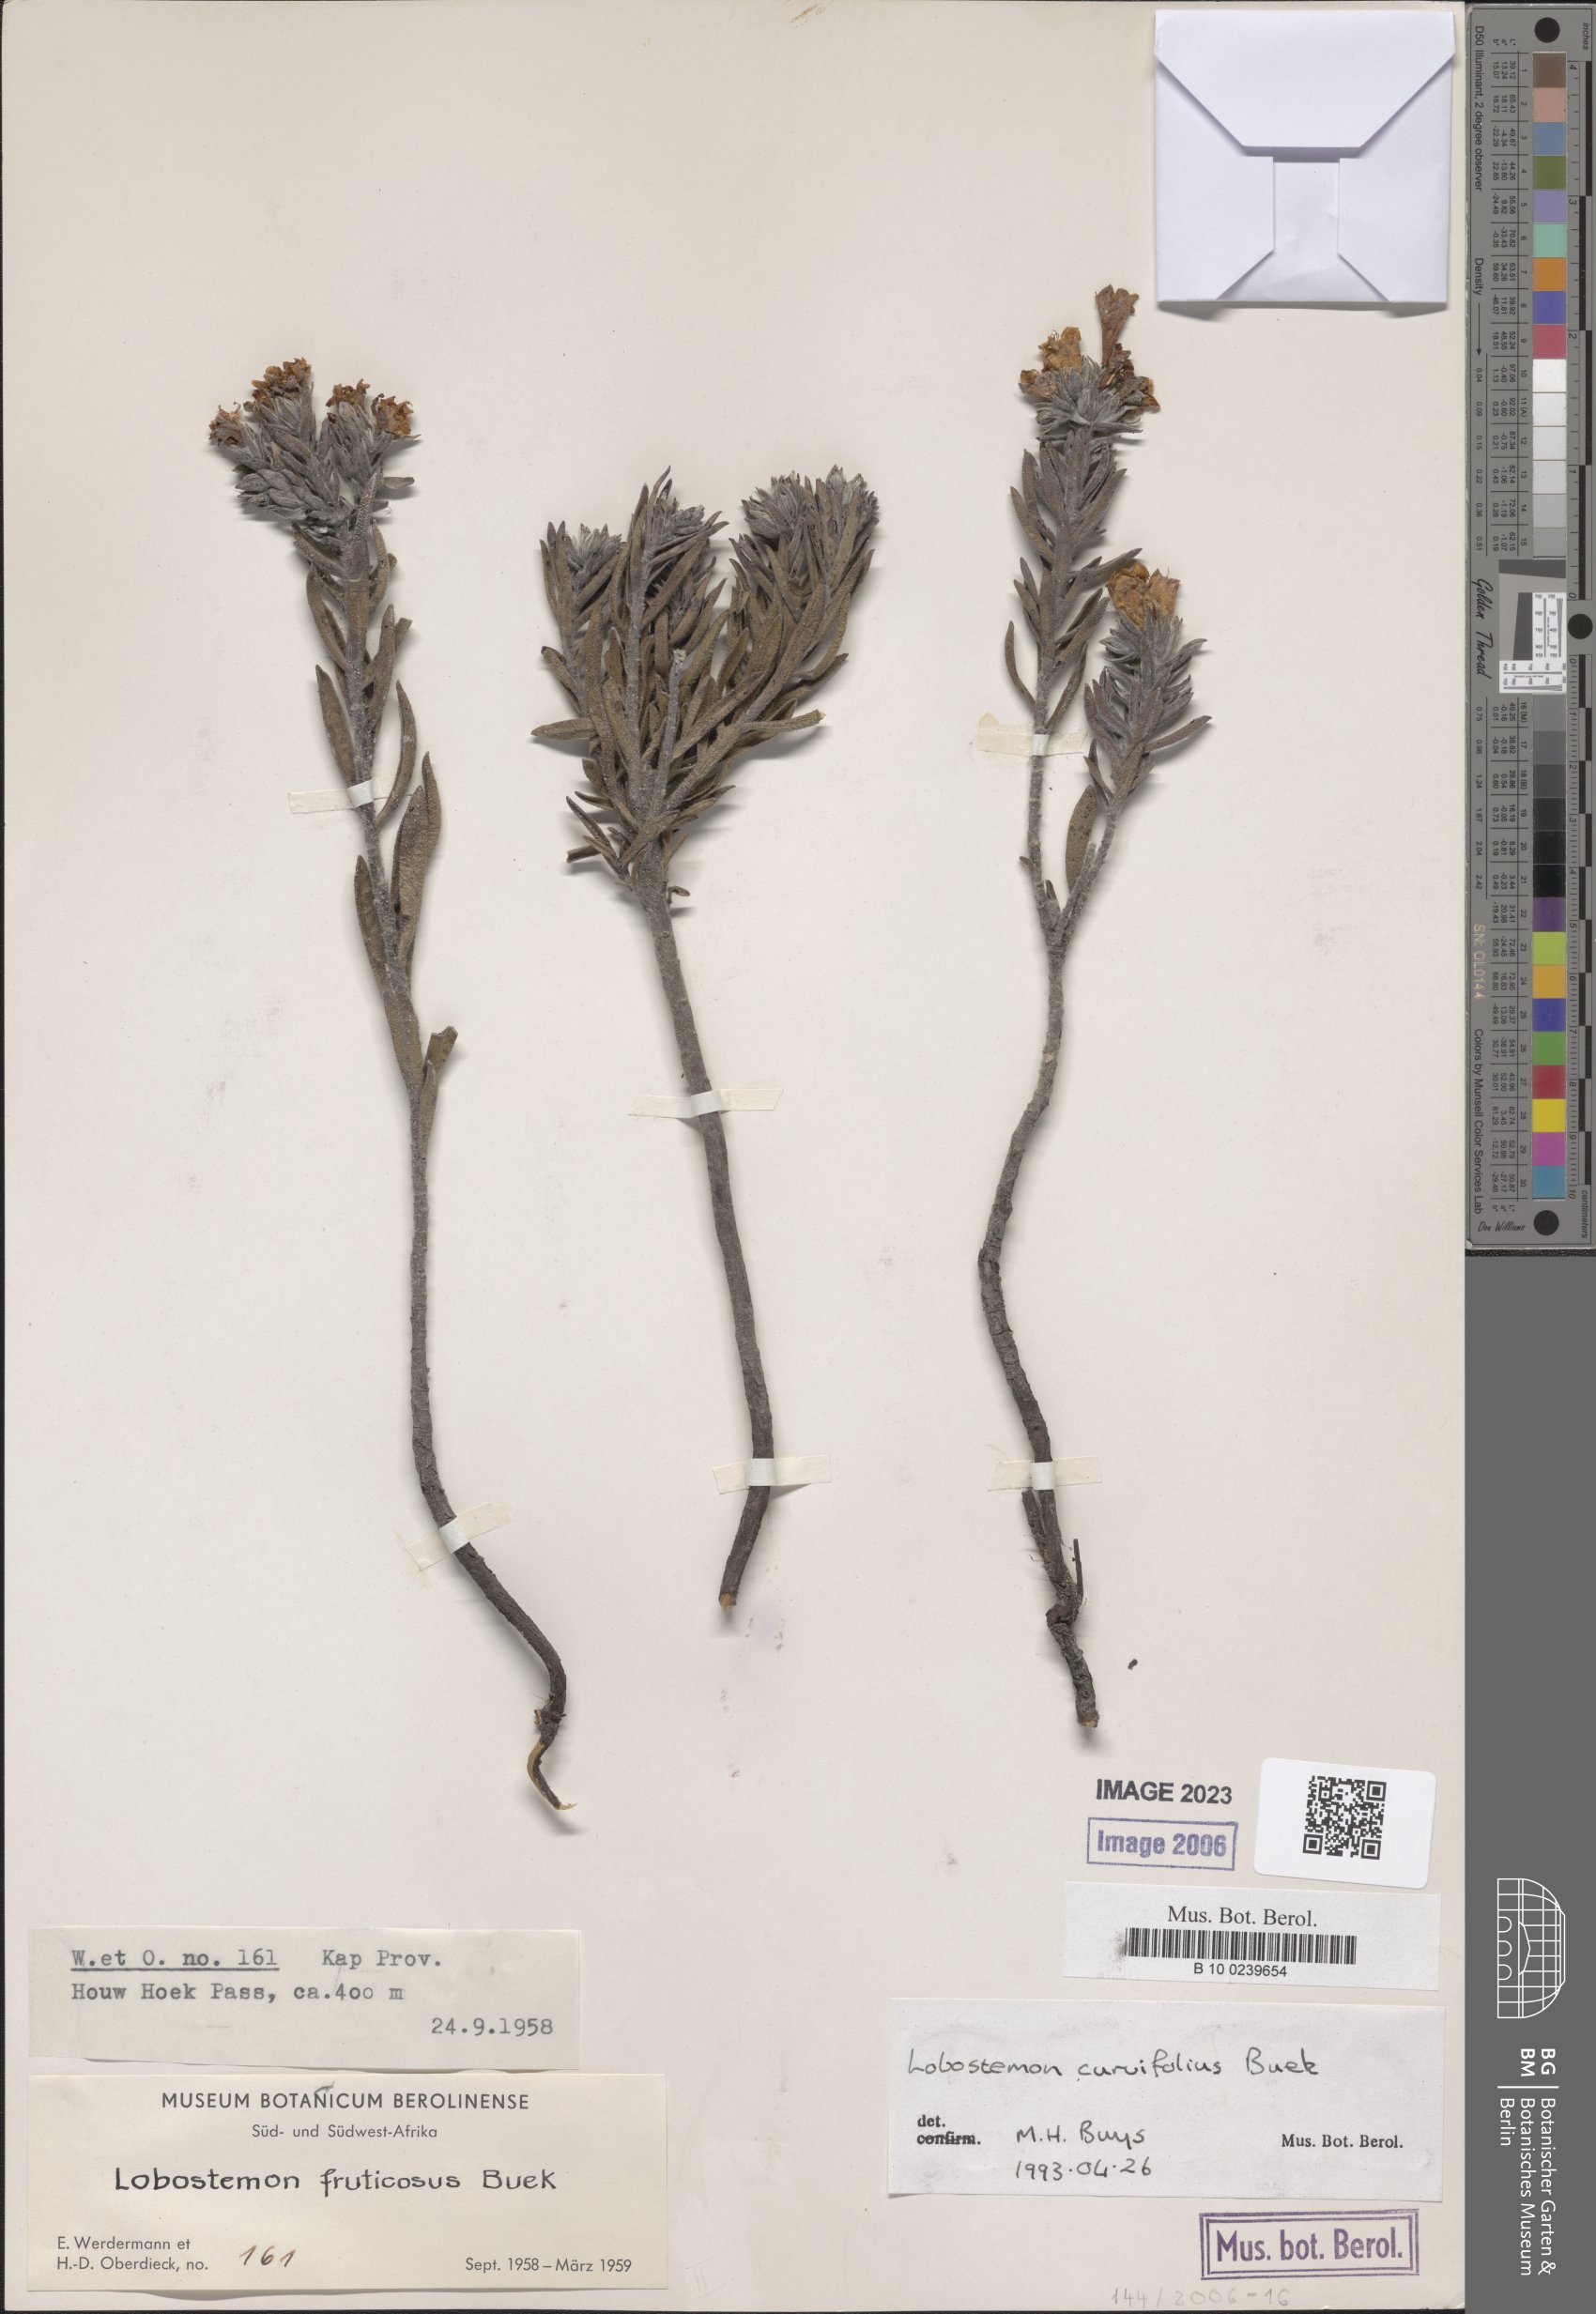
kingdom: Plantae
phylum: Tracheophyta
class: Magnoliopsida
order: Boraginales
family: Boraginaceae
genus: Lobostemon
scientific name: Lobostemon fruticosus
